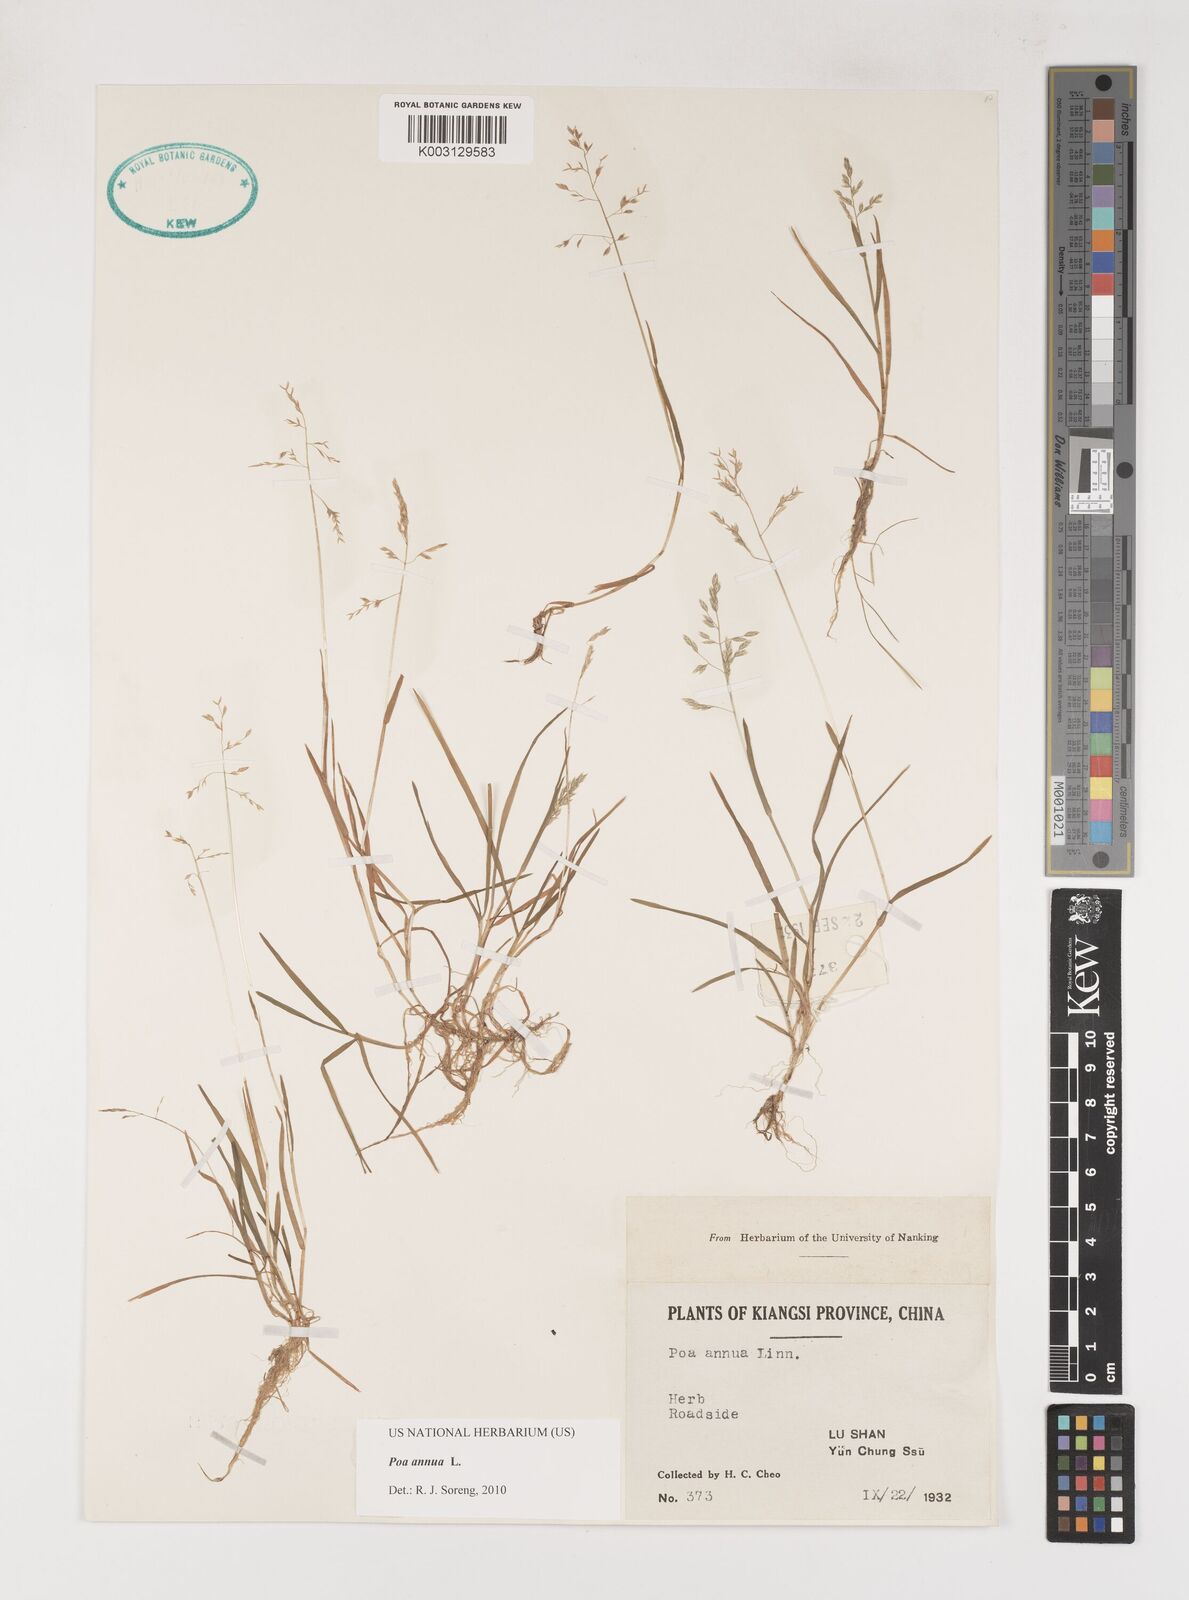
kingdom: Plantae
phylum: Tracheophyta
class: Liliopsida
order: Poales
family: Poaceae
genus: Poa
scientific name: Poa annua
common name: Annual bluegrass
